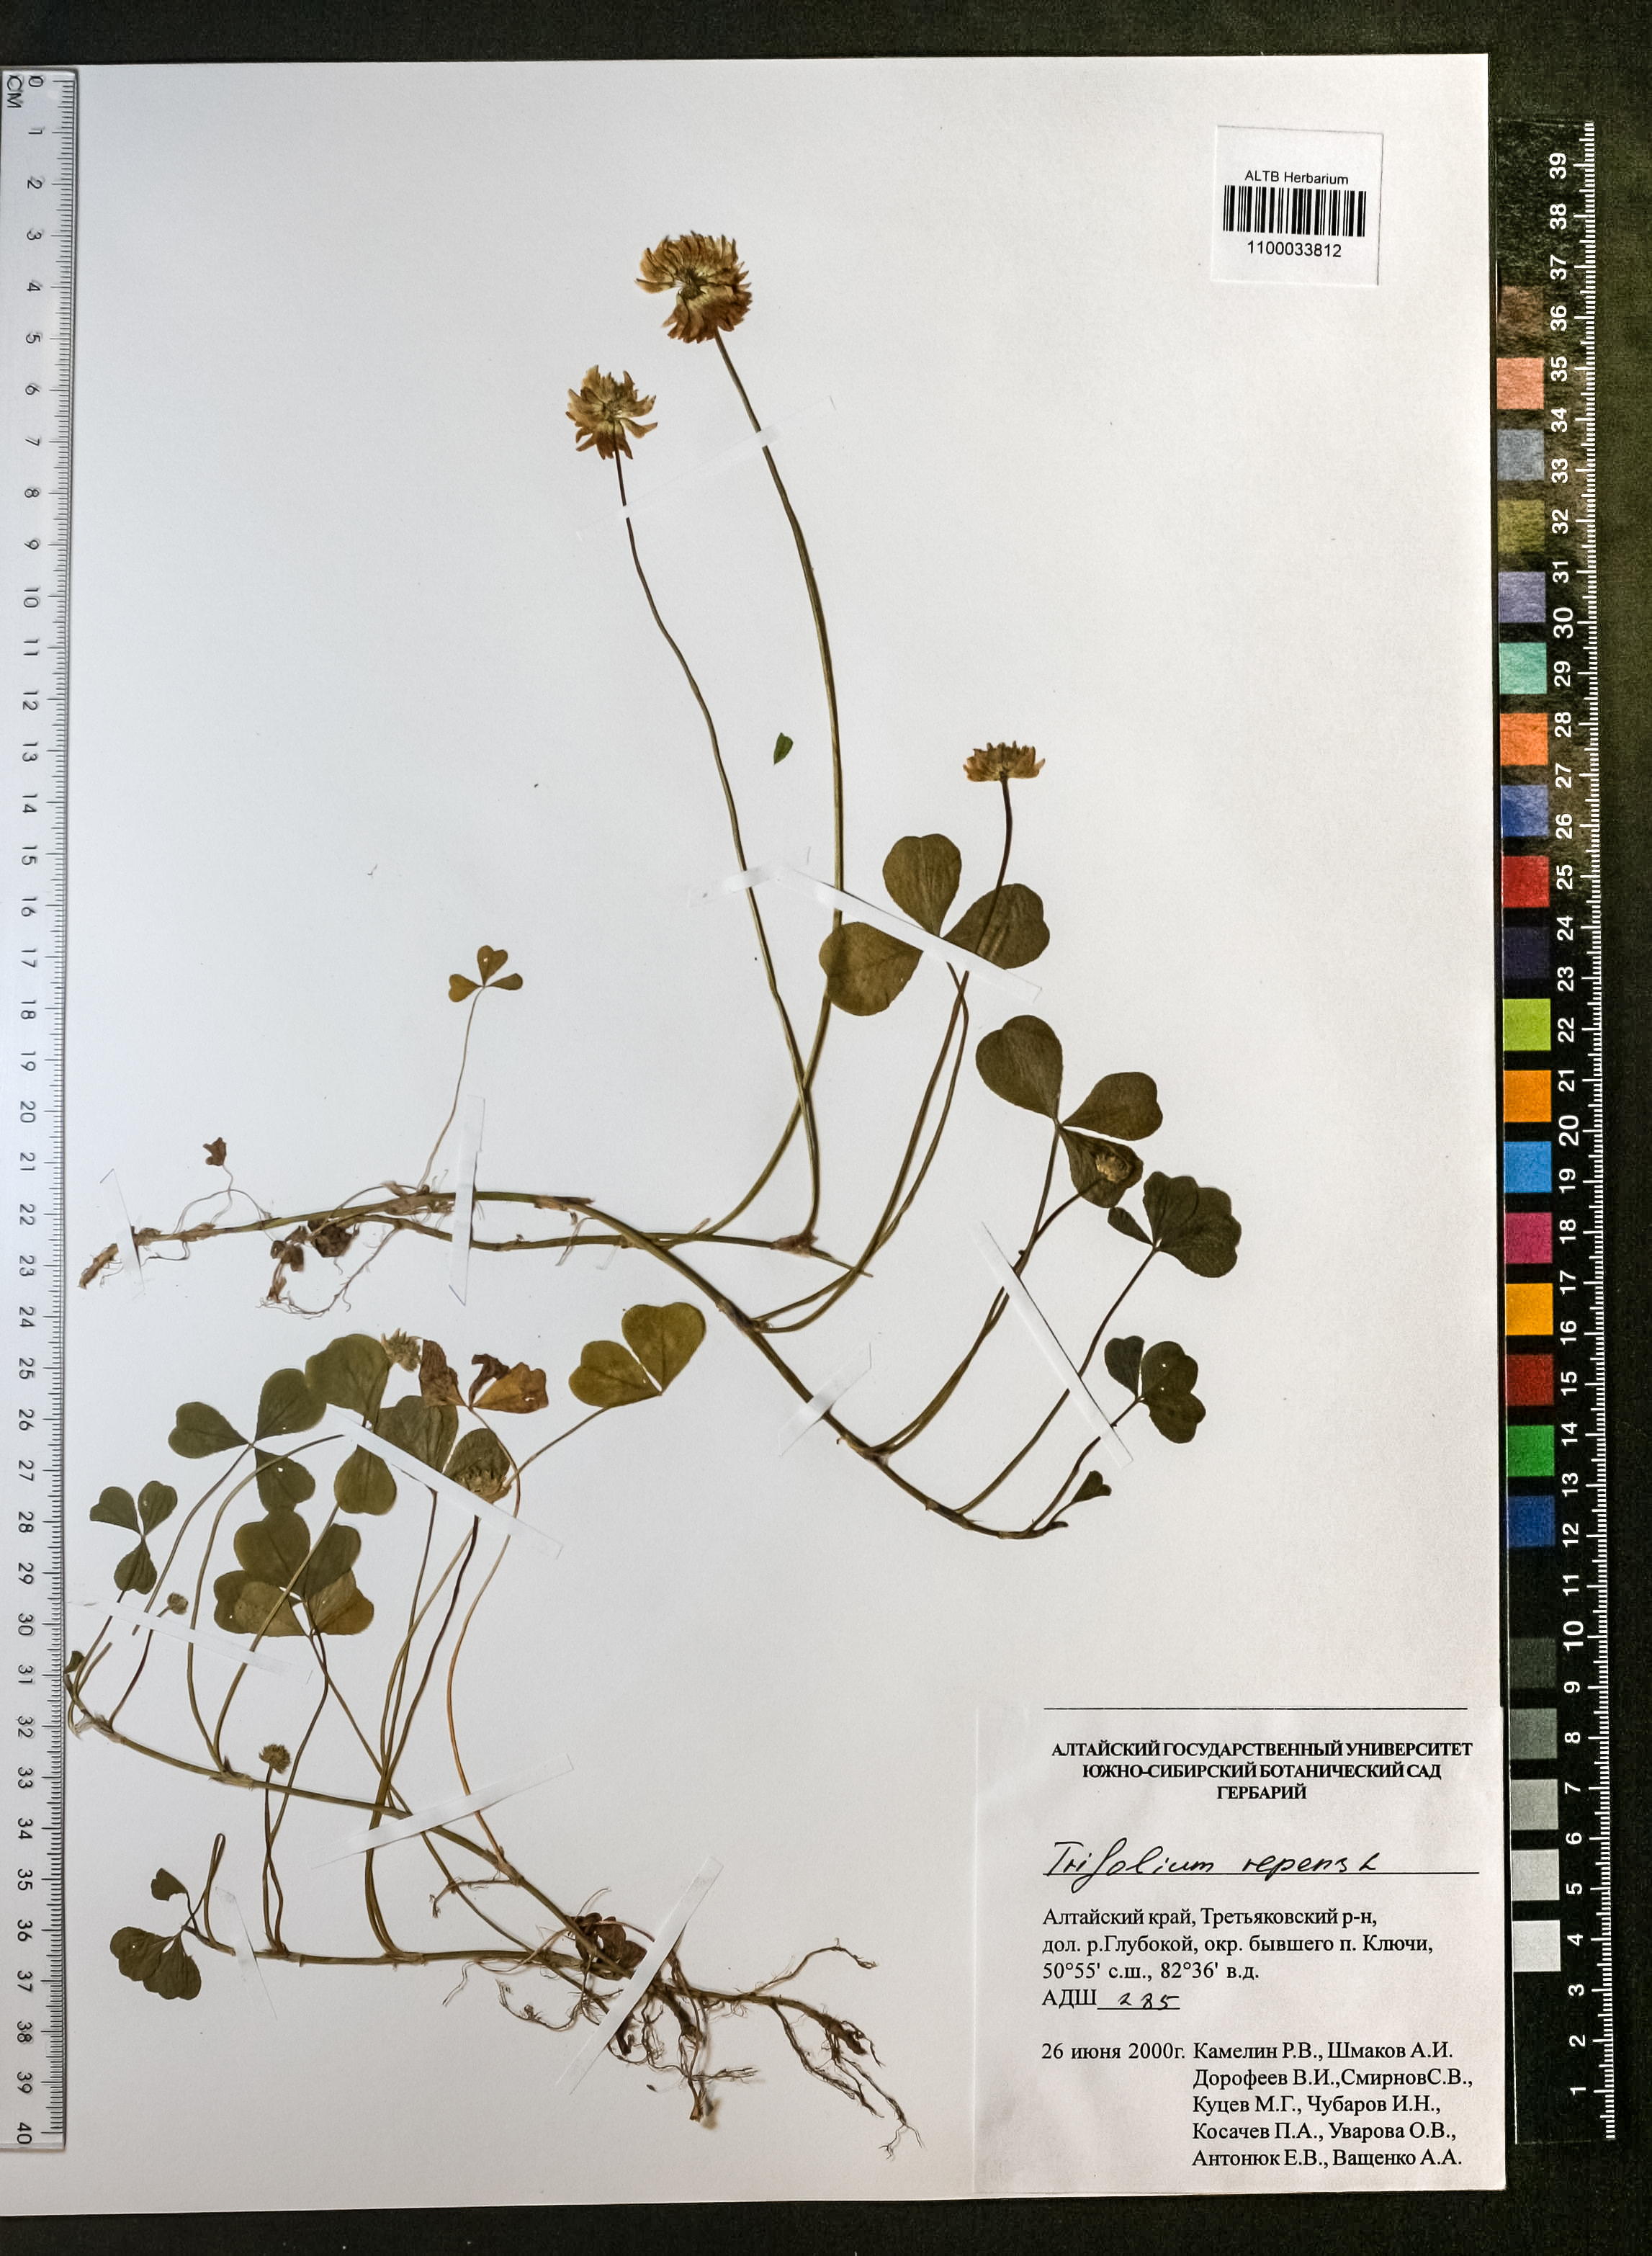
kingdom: Plantae
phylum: Tracheophyta
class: Magnoliopsida
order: Fabales
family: Fabaceae
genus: Trifolium
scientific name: Trifolium repens
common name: White clover
